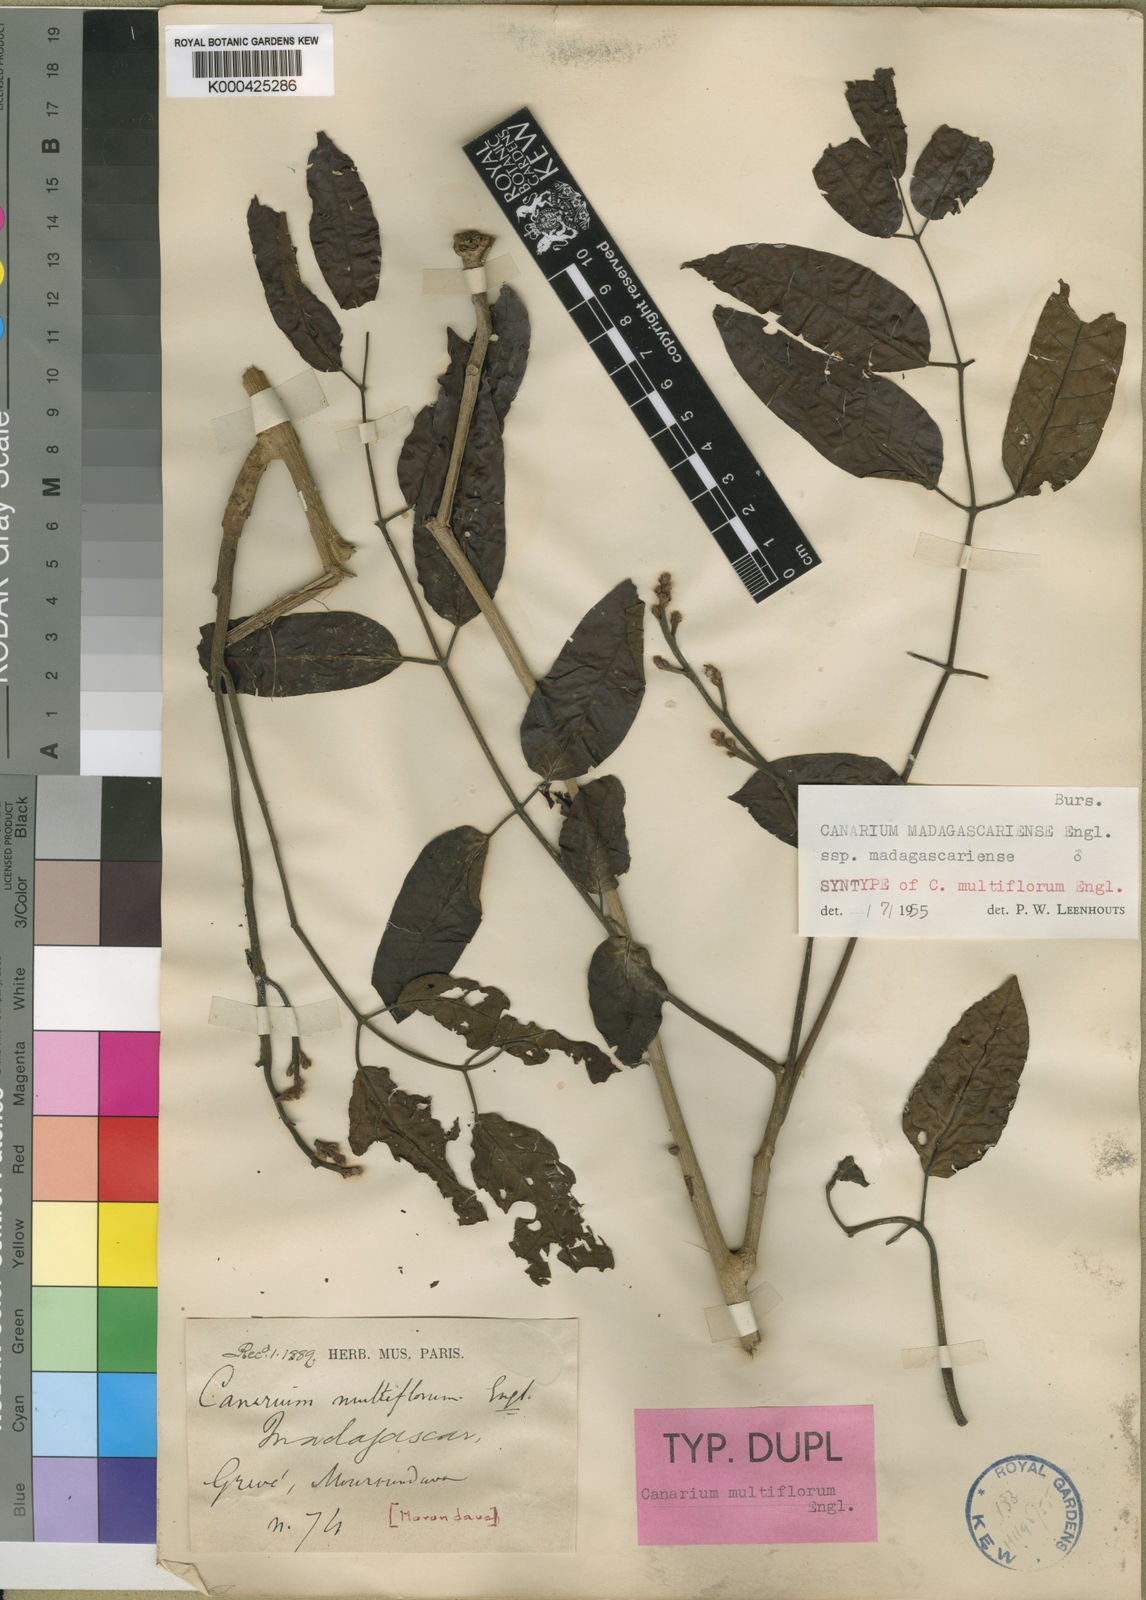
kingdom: Plantae
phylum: Tracheophyta
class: Magnoliopsida
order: Sapindales
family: Burseraceae
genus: Canarium
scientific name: Canarium madagascariense
